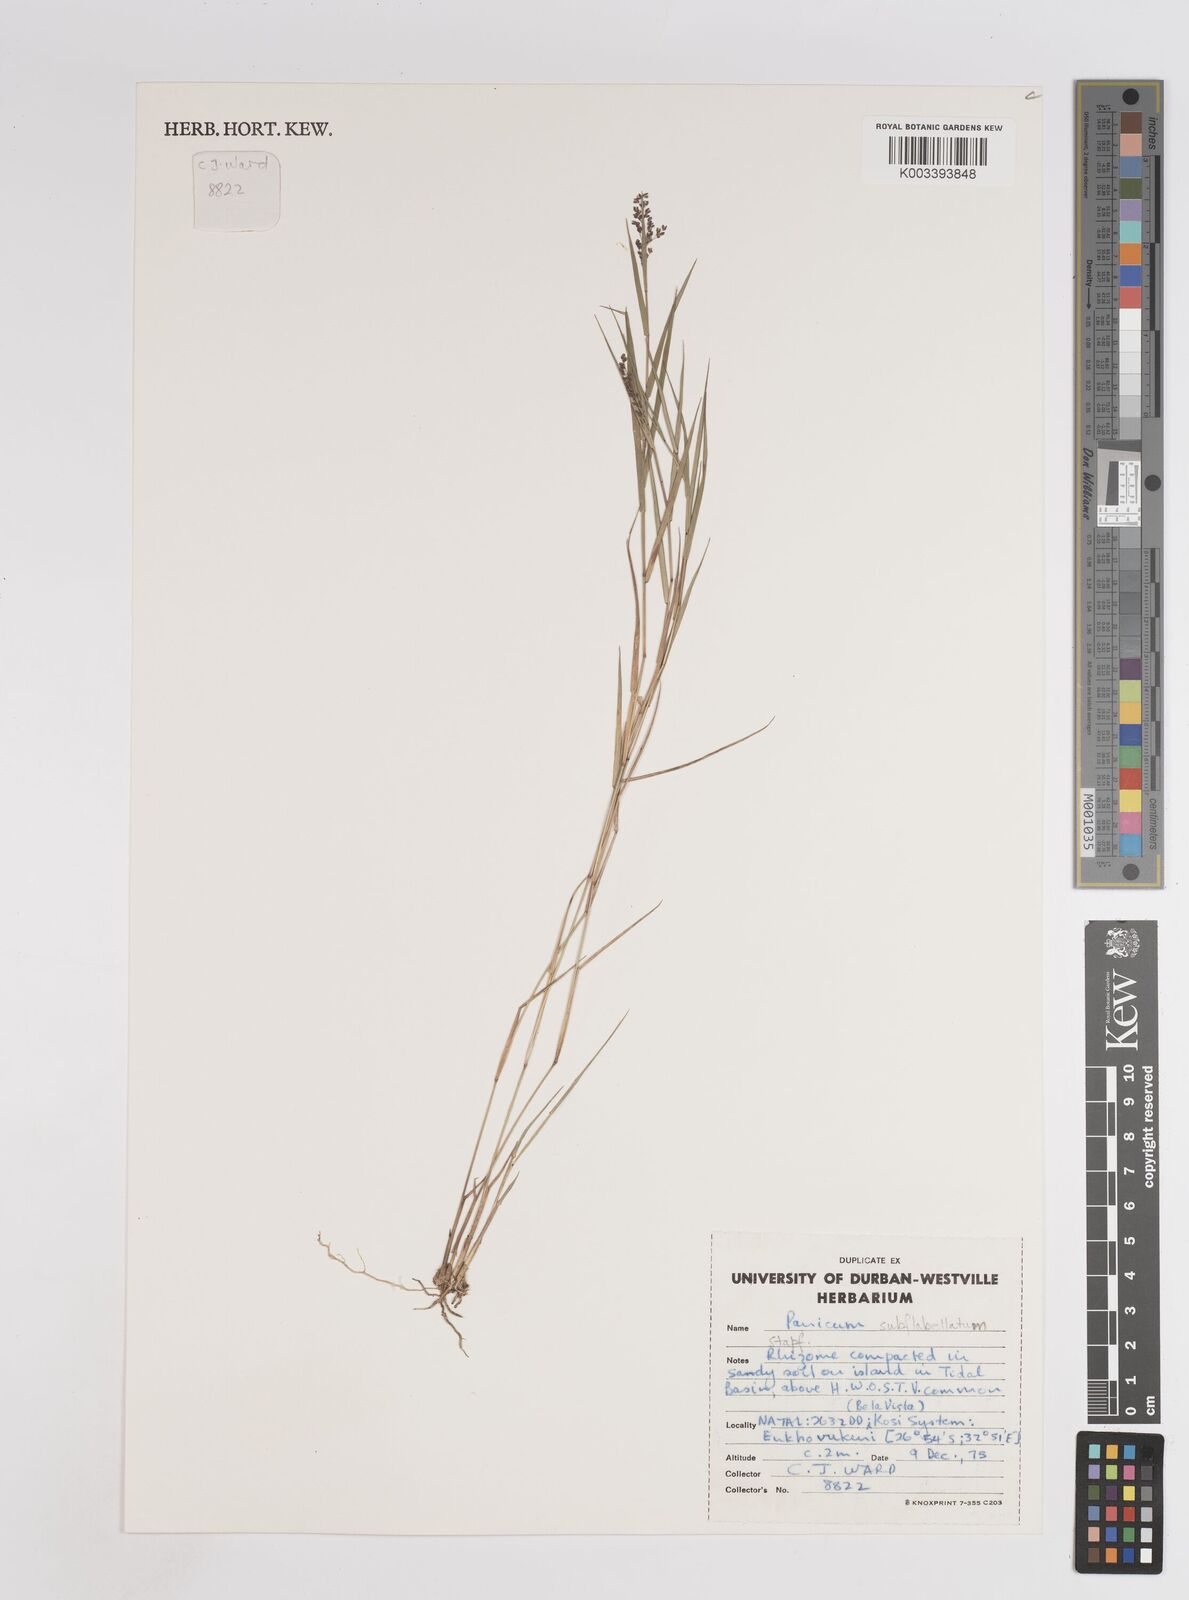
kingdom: Plantae
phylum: Tracheophyta
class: Liliopsida
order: Poales
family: Poaceae
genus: Panicum
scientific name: Panicum subflabellatum
